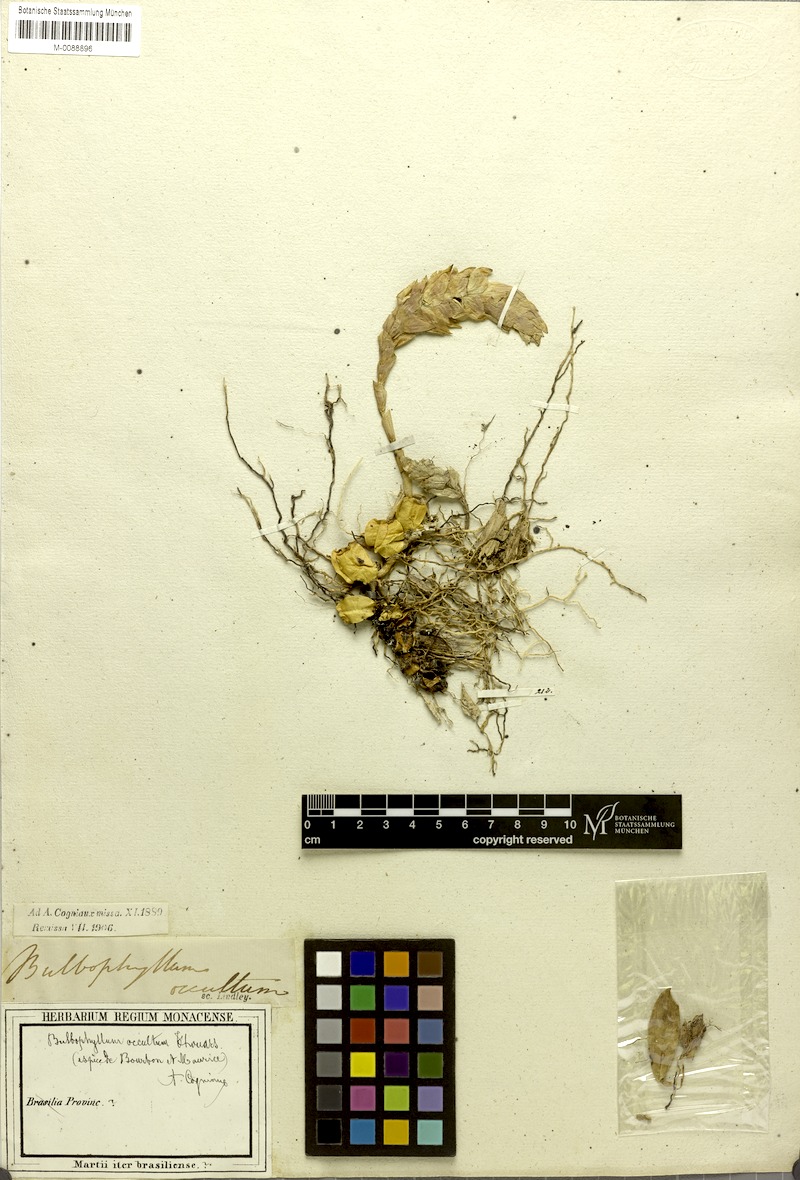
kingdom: Plantae
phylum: Tracheophyta
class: Liliopsida
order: Asparagales
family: Orchidaceae
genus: Bulbophyllum
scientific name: Bulbophyllum occultum
